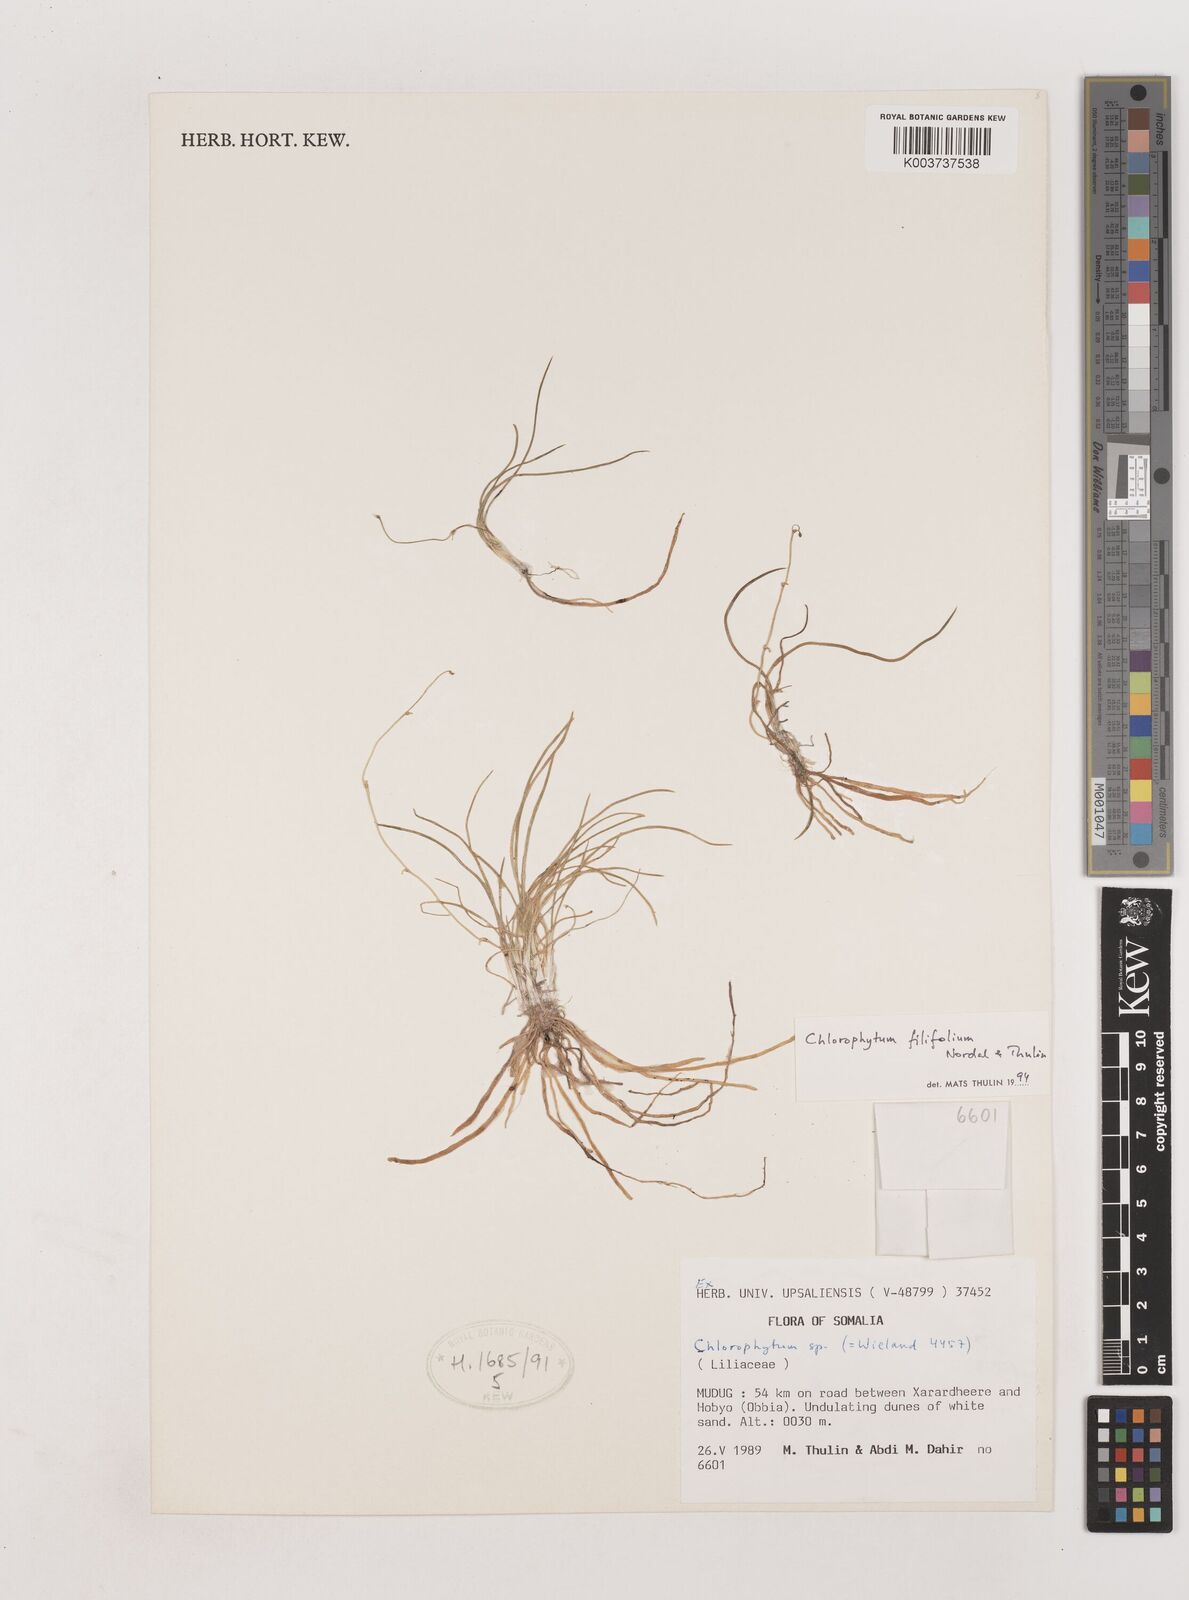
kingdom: Plantae
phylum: Tracheophyta
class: Liliopsida
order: Asparagales
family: Asparagaceae
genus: Chlorophytum
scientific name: Chlorophytum filifolium
